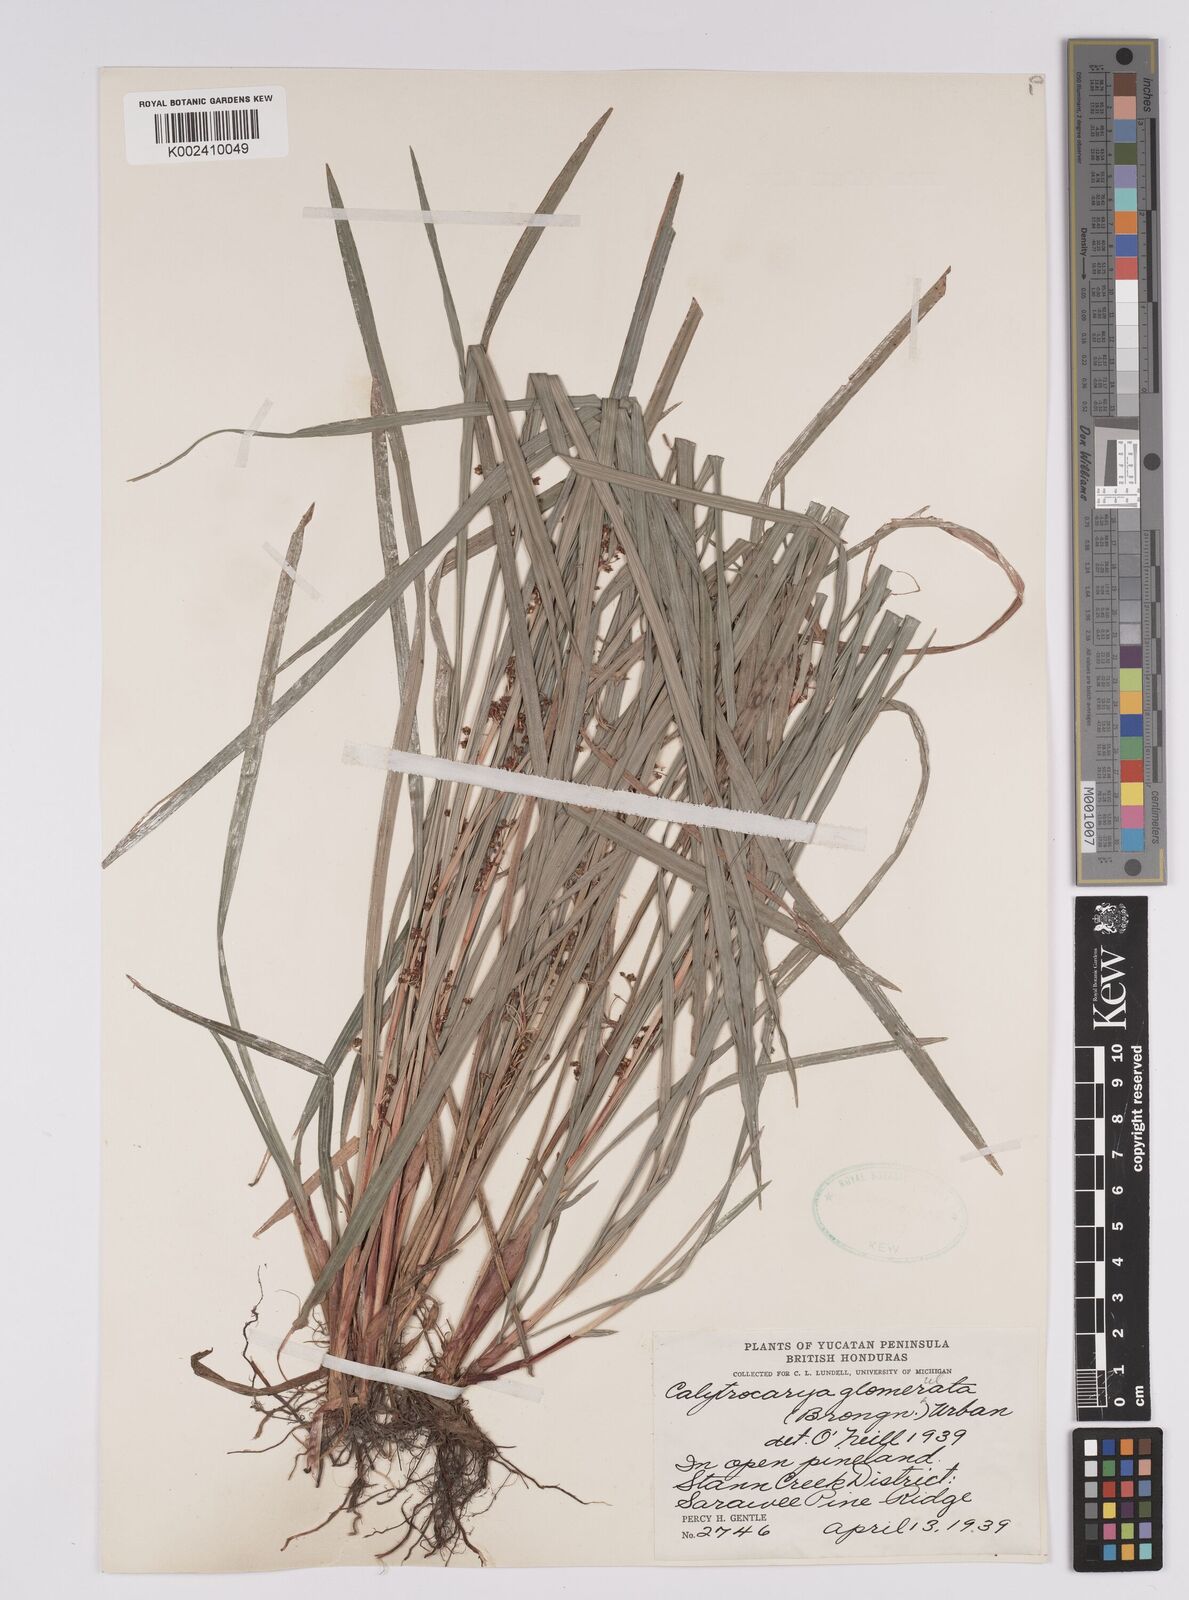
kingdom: Plantae
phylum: Tracheophyta
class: Liliopsida
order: Poales
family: Cyperaceae
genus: Calyptrocarya
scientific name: Calyptrocarya
